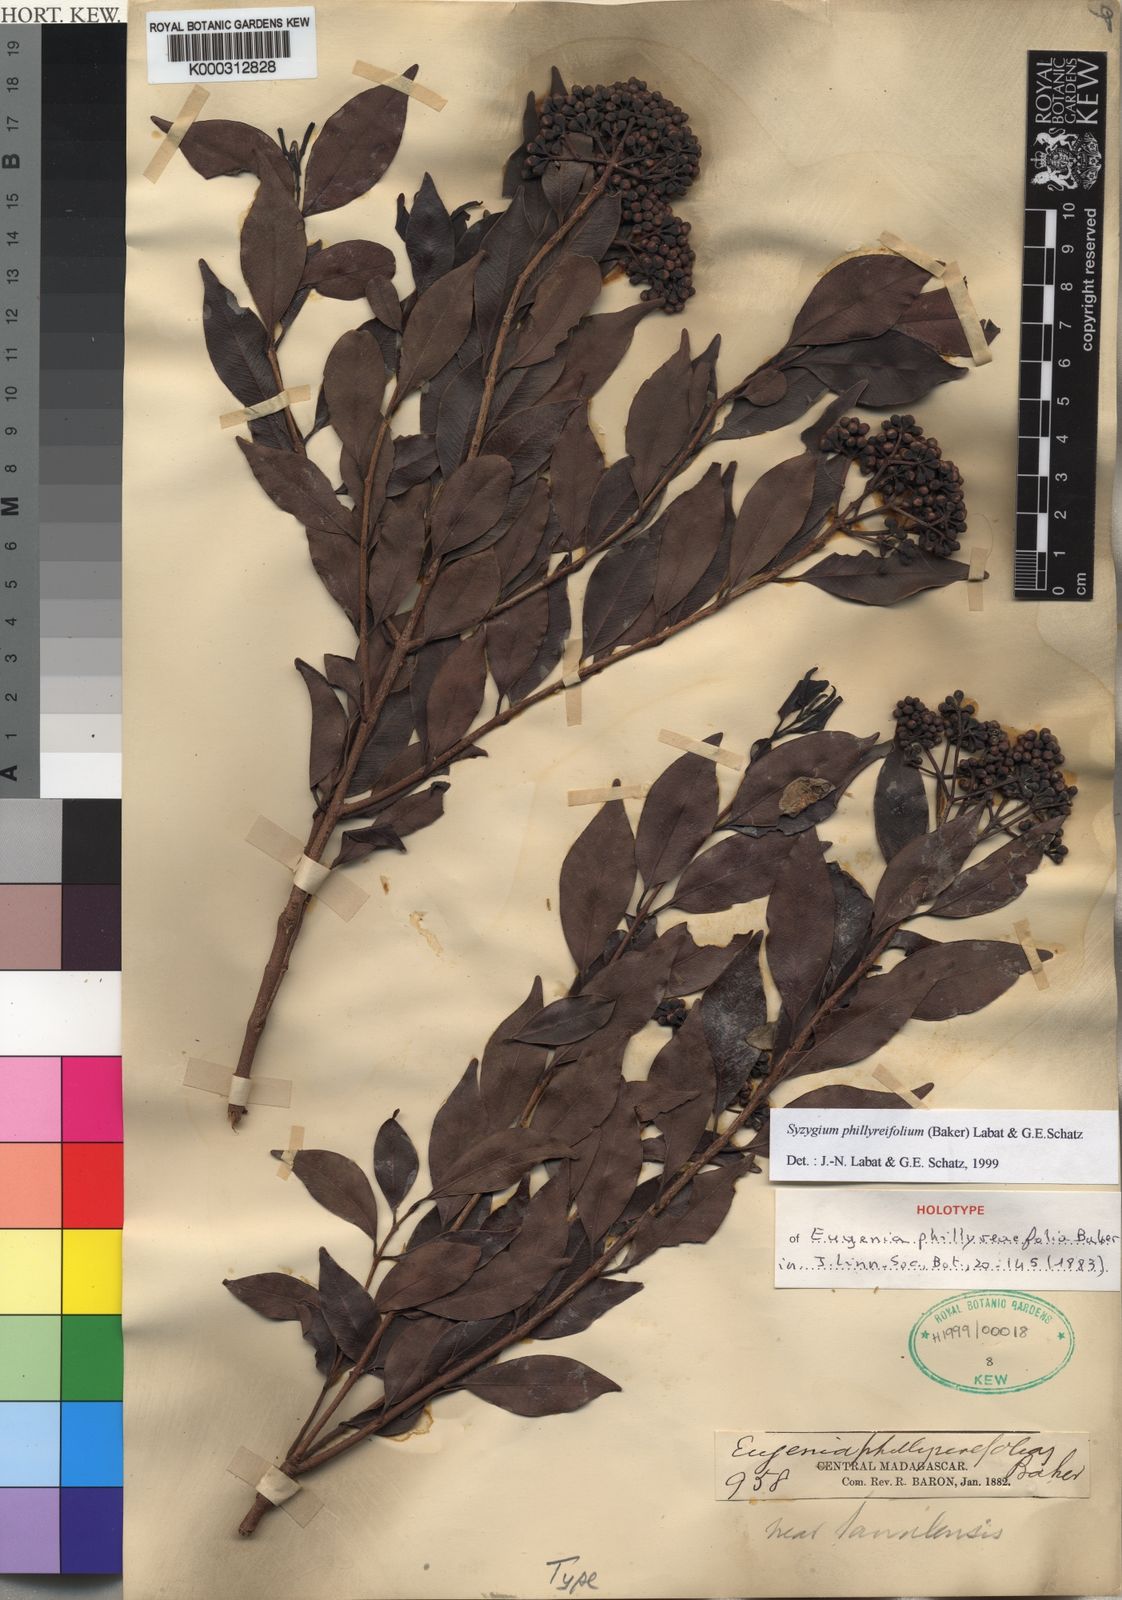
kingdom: Plantae
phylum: Tracheophyta
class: Magnoliopsida
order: Myrtales
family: Myrtaceae
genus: Syzygium
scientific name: Syzygium
